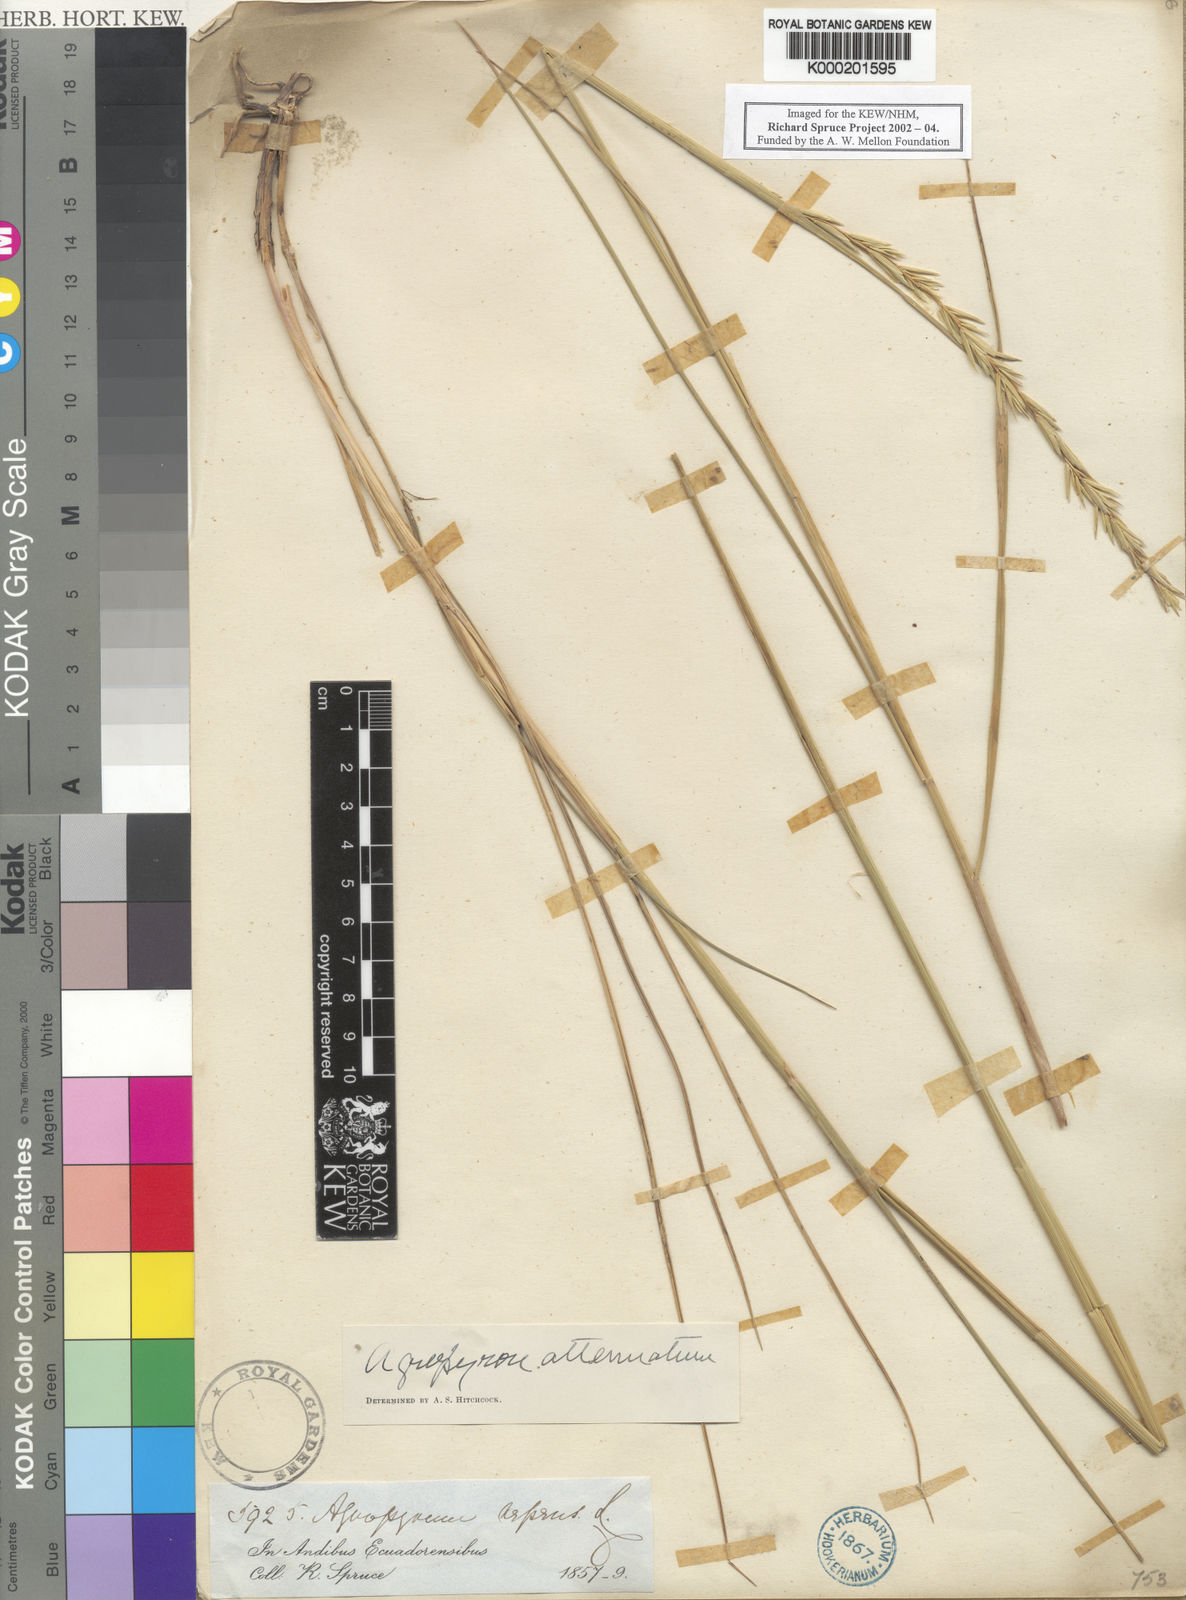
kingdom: Plantae
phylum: Tracheophyta
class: Liliopsida
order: Poales
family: Poaceae
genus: Elymus
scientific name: Elymus cordilleranus
